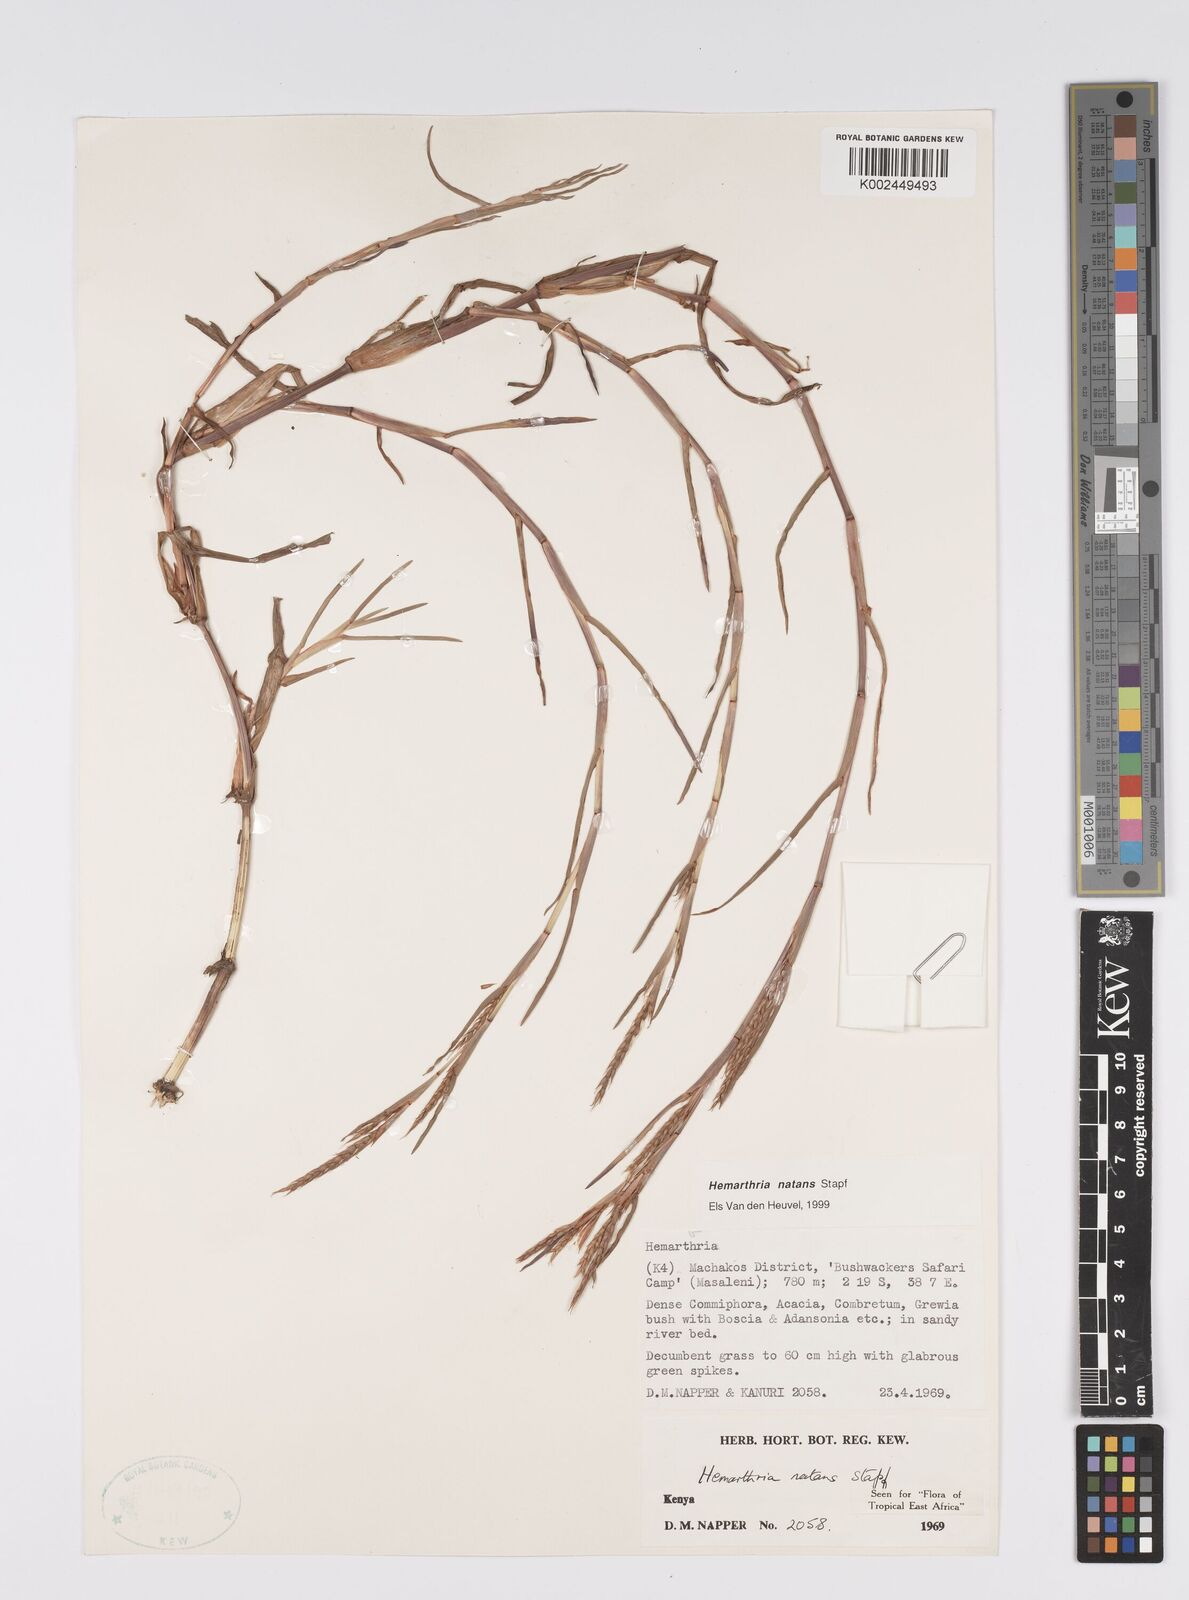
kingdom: Plantae
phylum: Tracheophyta
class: Liliopsida
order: Poales
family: Poaceae
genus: Hemarthria
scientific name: Hemarthria natans
